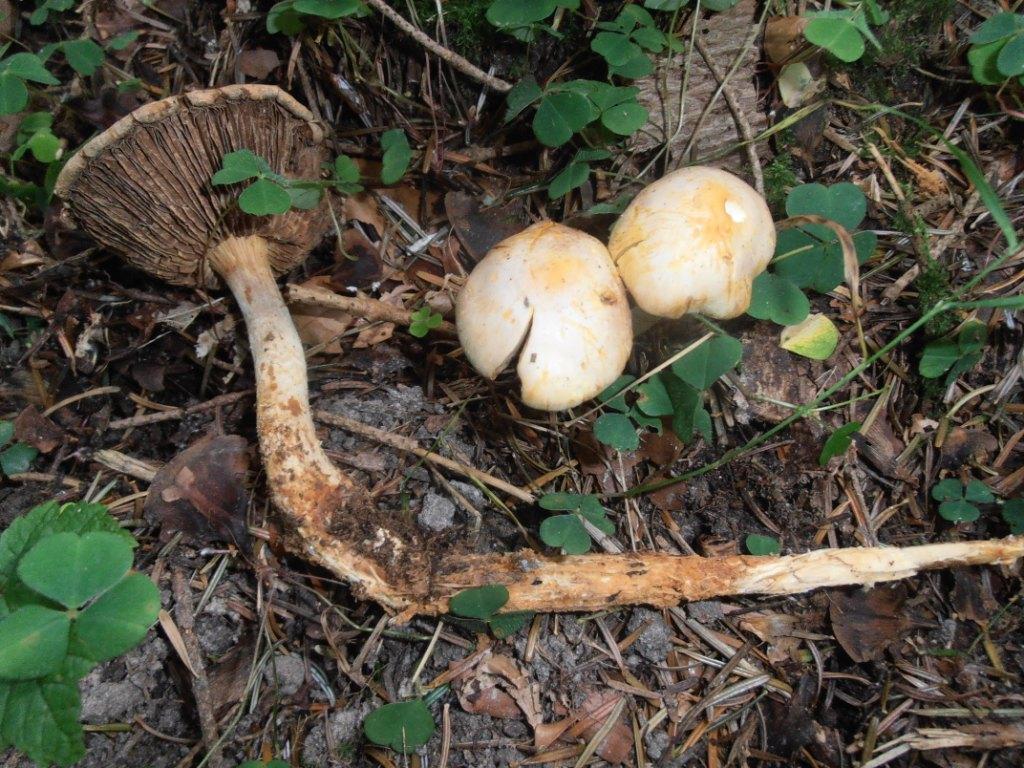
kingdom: Fungi
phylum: Basidiomycota
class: Agaricomycetes
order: Agaricales
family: Strophariaceae
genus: Hypholoma
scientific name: Hypholoma radicosum
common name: pælerods-svovlhat
